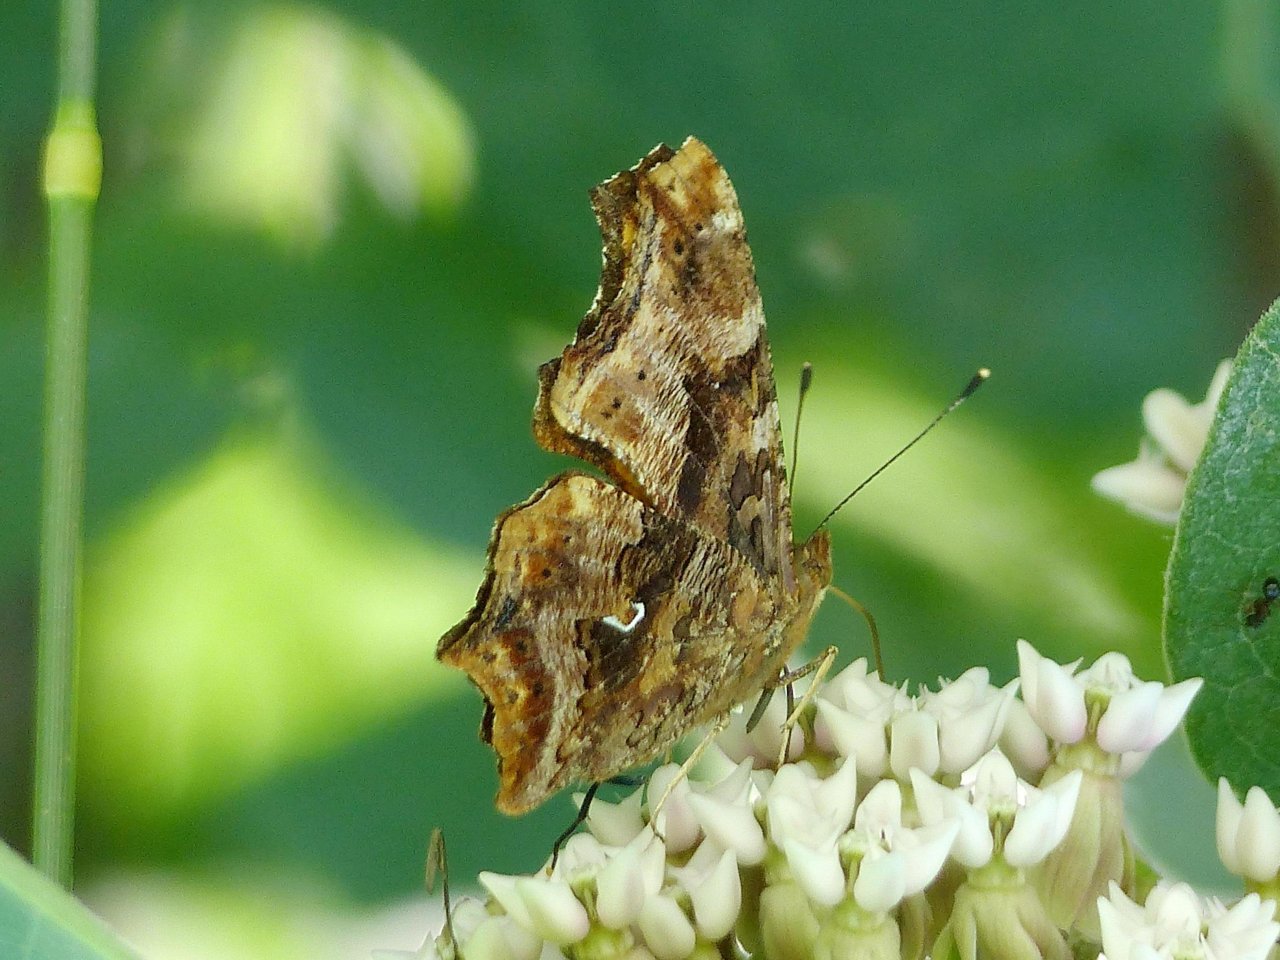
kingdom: Animalia
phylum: Arthropoda
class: Insecta
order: Lepidoptera
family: Nymphalidae
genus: Polygonia
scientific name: Polygonia comma
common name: Eastern Comma
